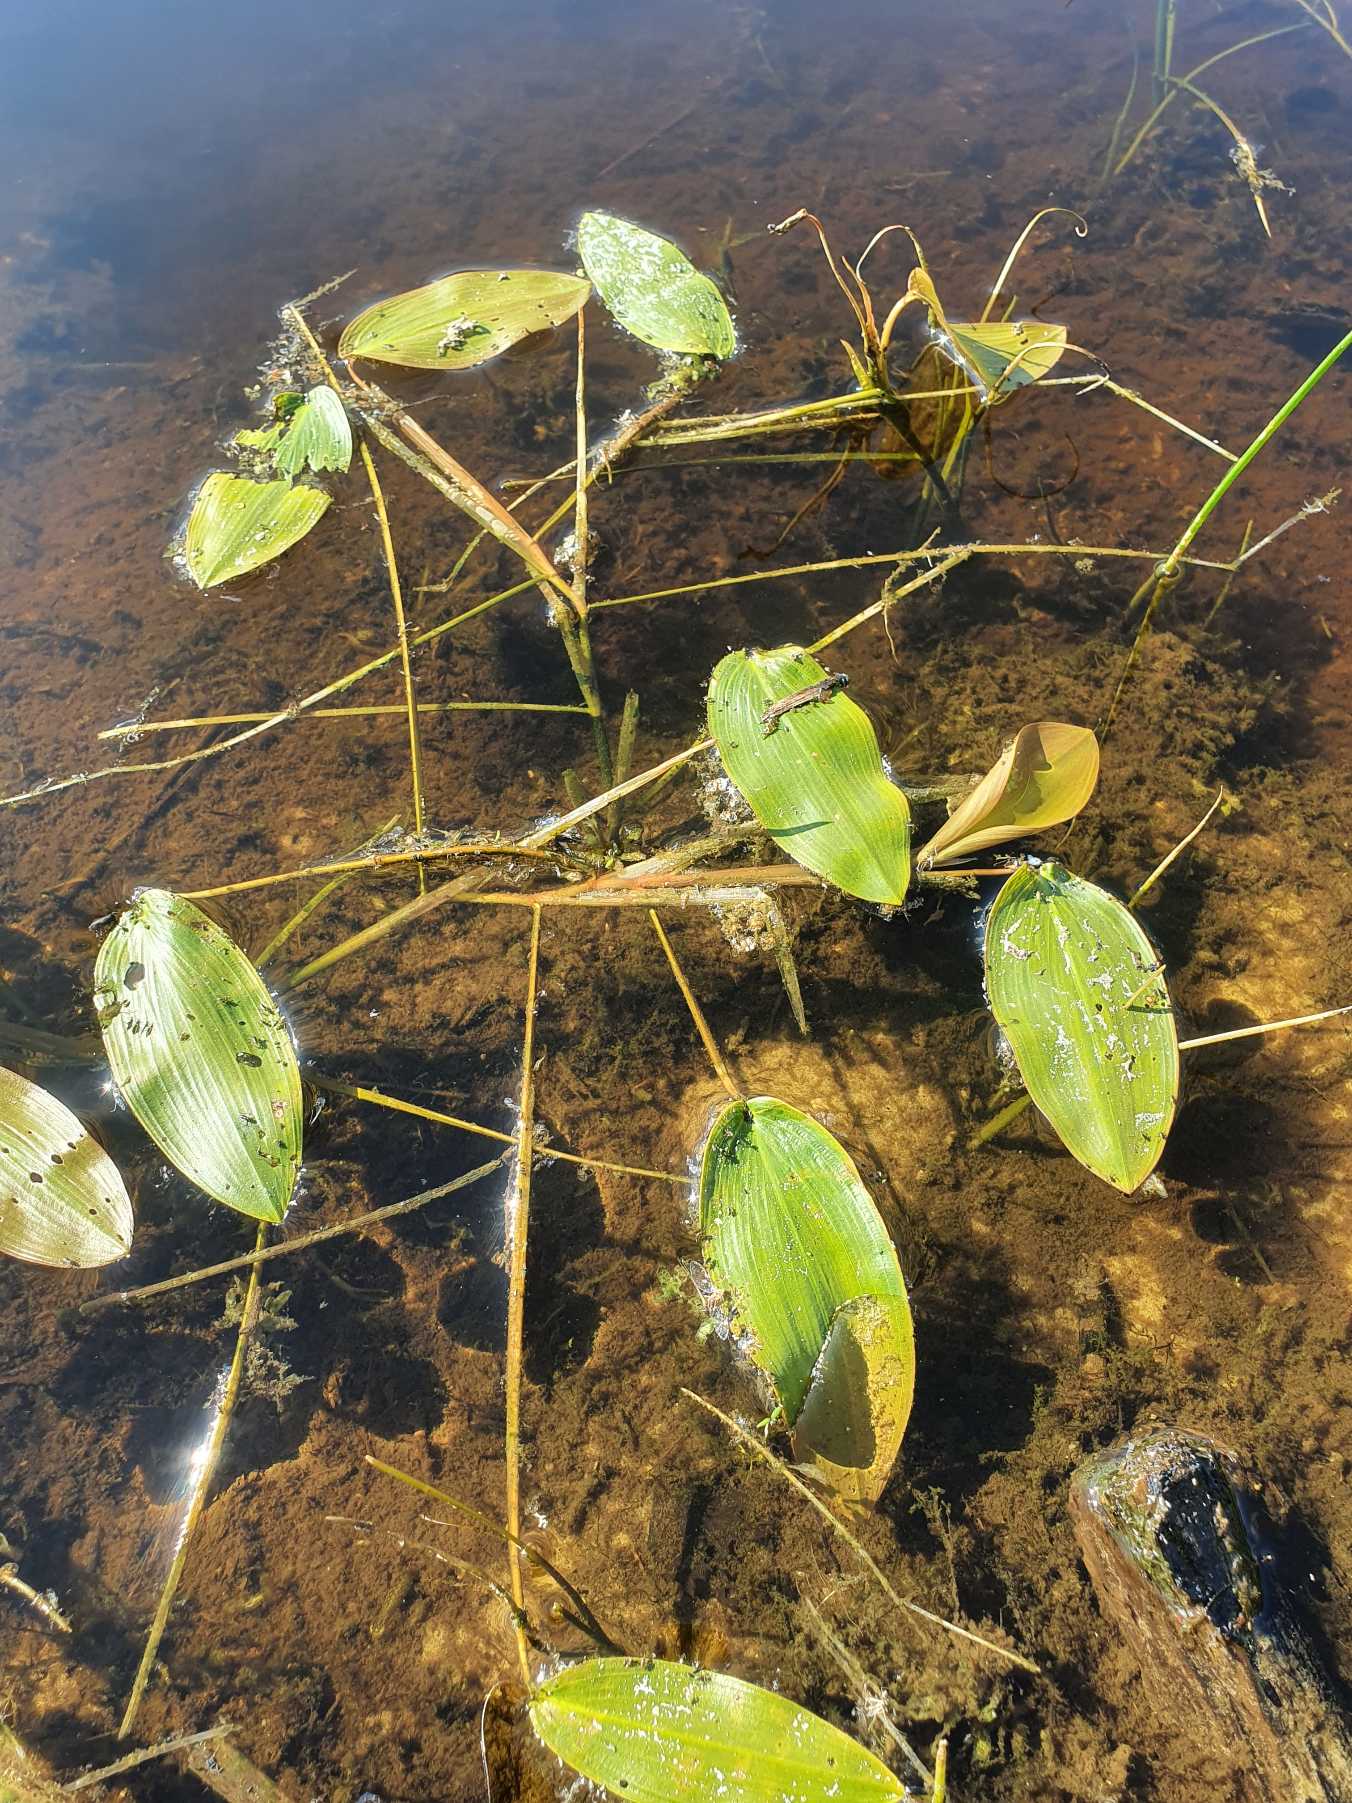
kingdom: Plantae
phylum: Tracheophyta
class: Liliopsida
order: Alismatales
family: Potamogetonaceae
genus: Potamogeton
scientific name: Potamogeton natans
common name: Svømmende vandaks
